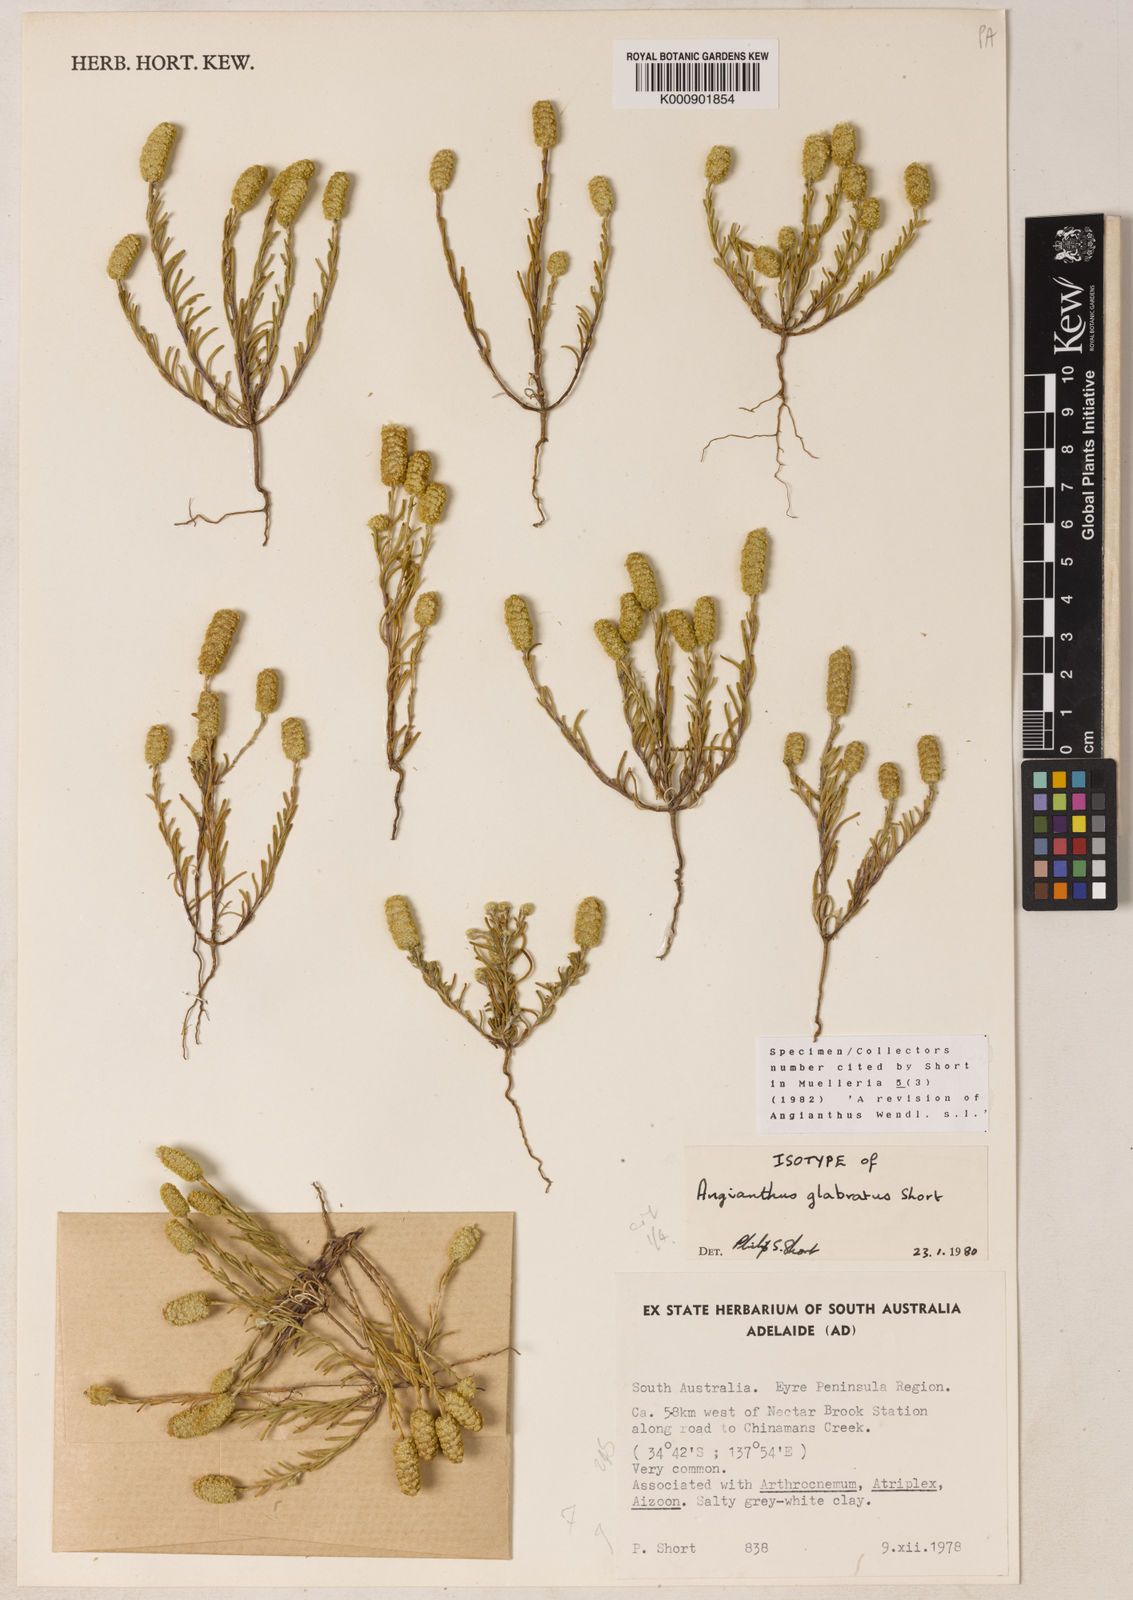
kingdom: Plantae
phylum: Tracheophyta
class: Magnoliopsida
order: Asterales
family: Asteraceae
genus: Angianthus
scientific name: Angianthus glabratus
